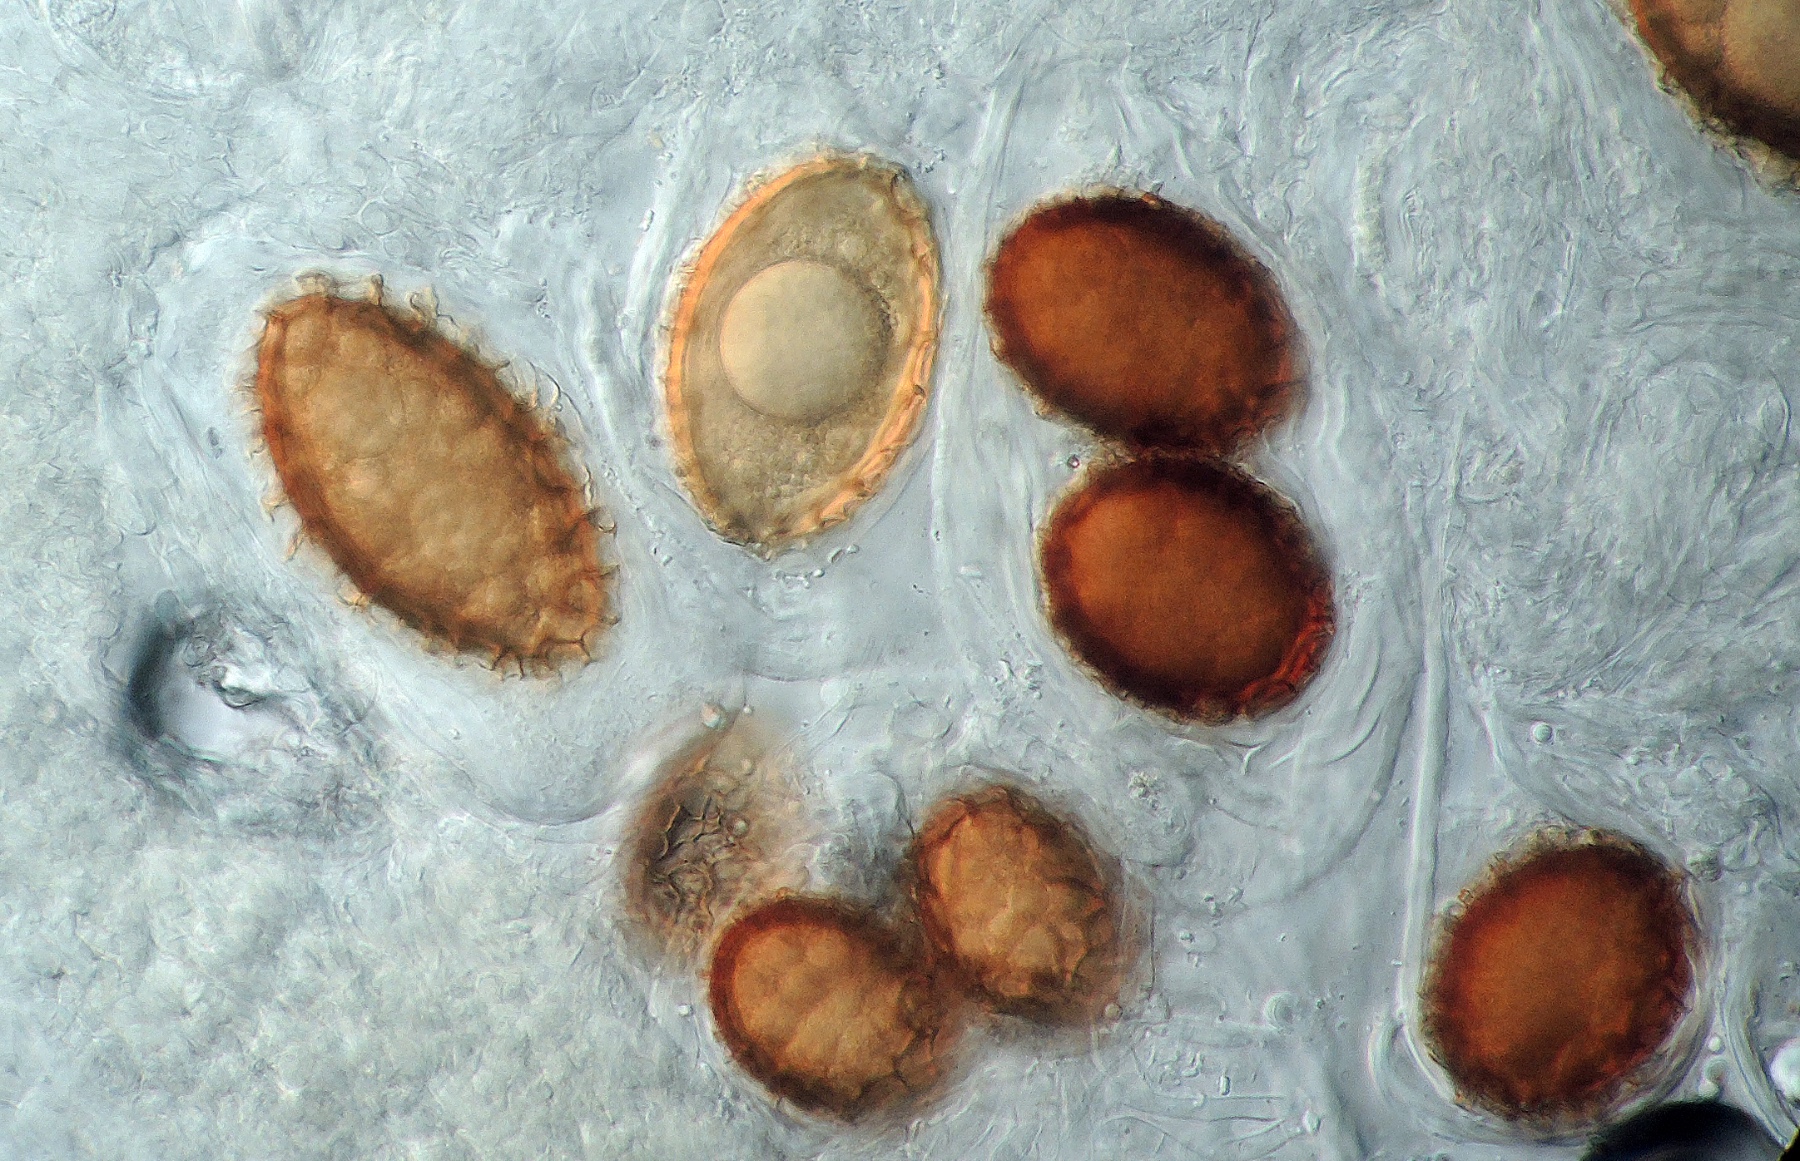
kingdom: Fungi
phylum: Ascomycota
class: Pezizomycetes
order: Pezizales
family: Tuberaceae
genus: Tuber
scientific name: Tuber macrosporum
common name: storsporet trøffel
